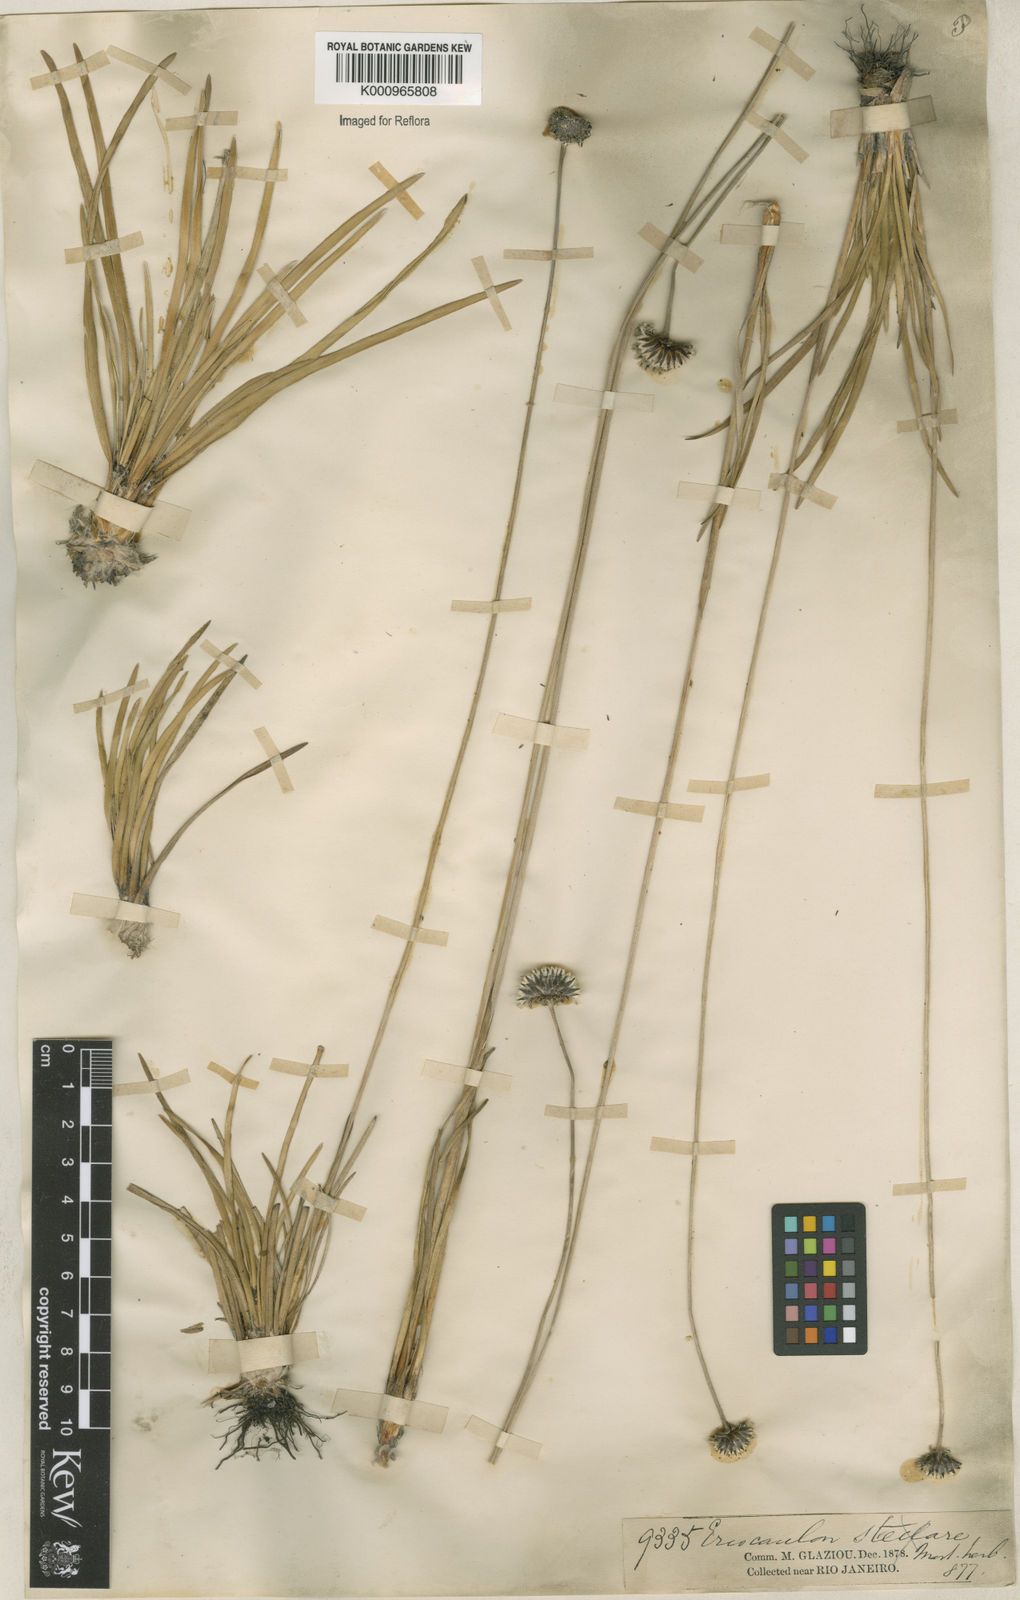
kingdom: Plantae
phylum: Tracheophyta
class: Liliopsida
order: Poales
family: Eriocaulaceae
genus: Paepalanthus
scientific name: Paepalanthus
